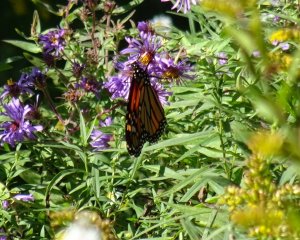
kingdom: Animalia
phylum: Arthropoda
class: Insecta
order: Lepidoptera
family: Nymphalidae
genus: Danaus
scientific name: Danaus plexippus
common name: Monarch
